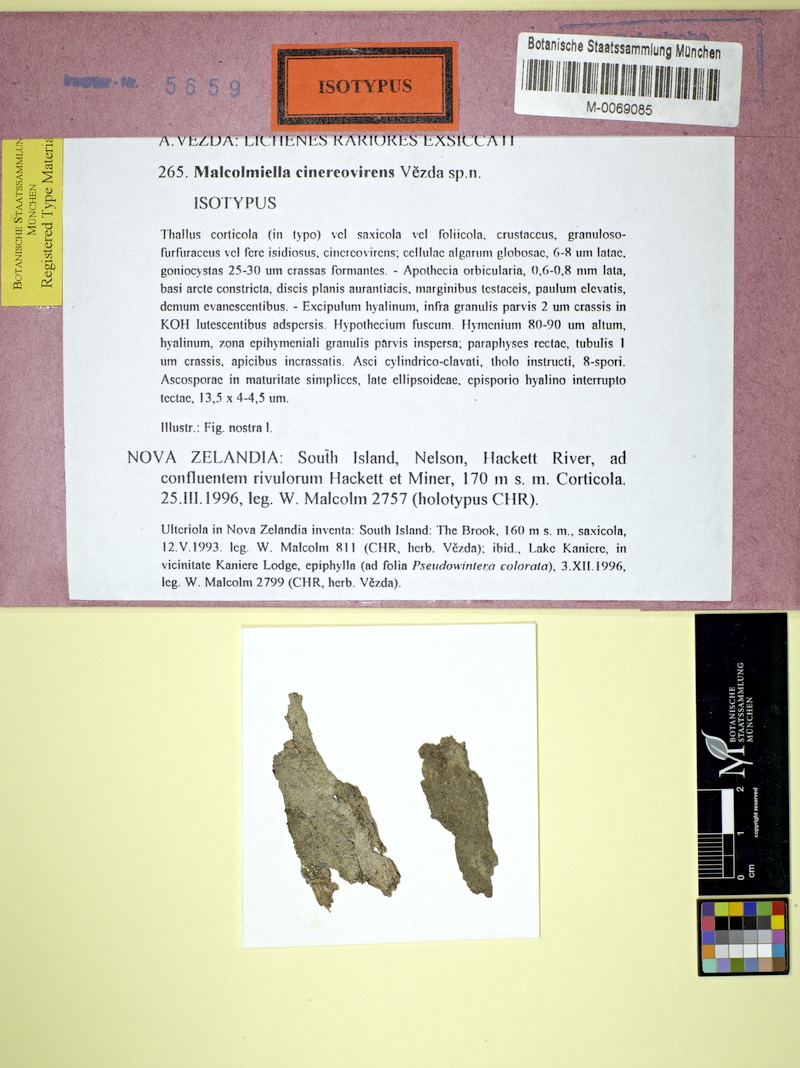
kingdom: Fungi
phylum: Ascomycota
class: Lecanoromycetes
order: Teloschistales
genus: Malcolmiella
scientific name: Malcolmiella cinereovirens
